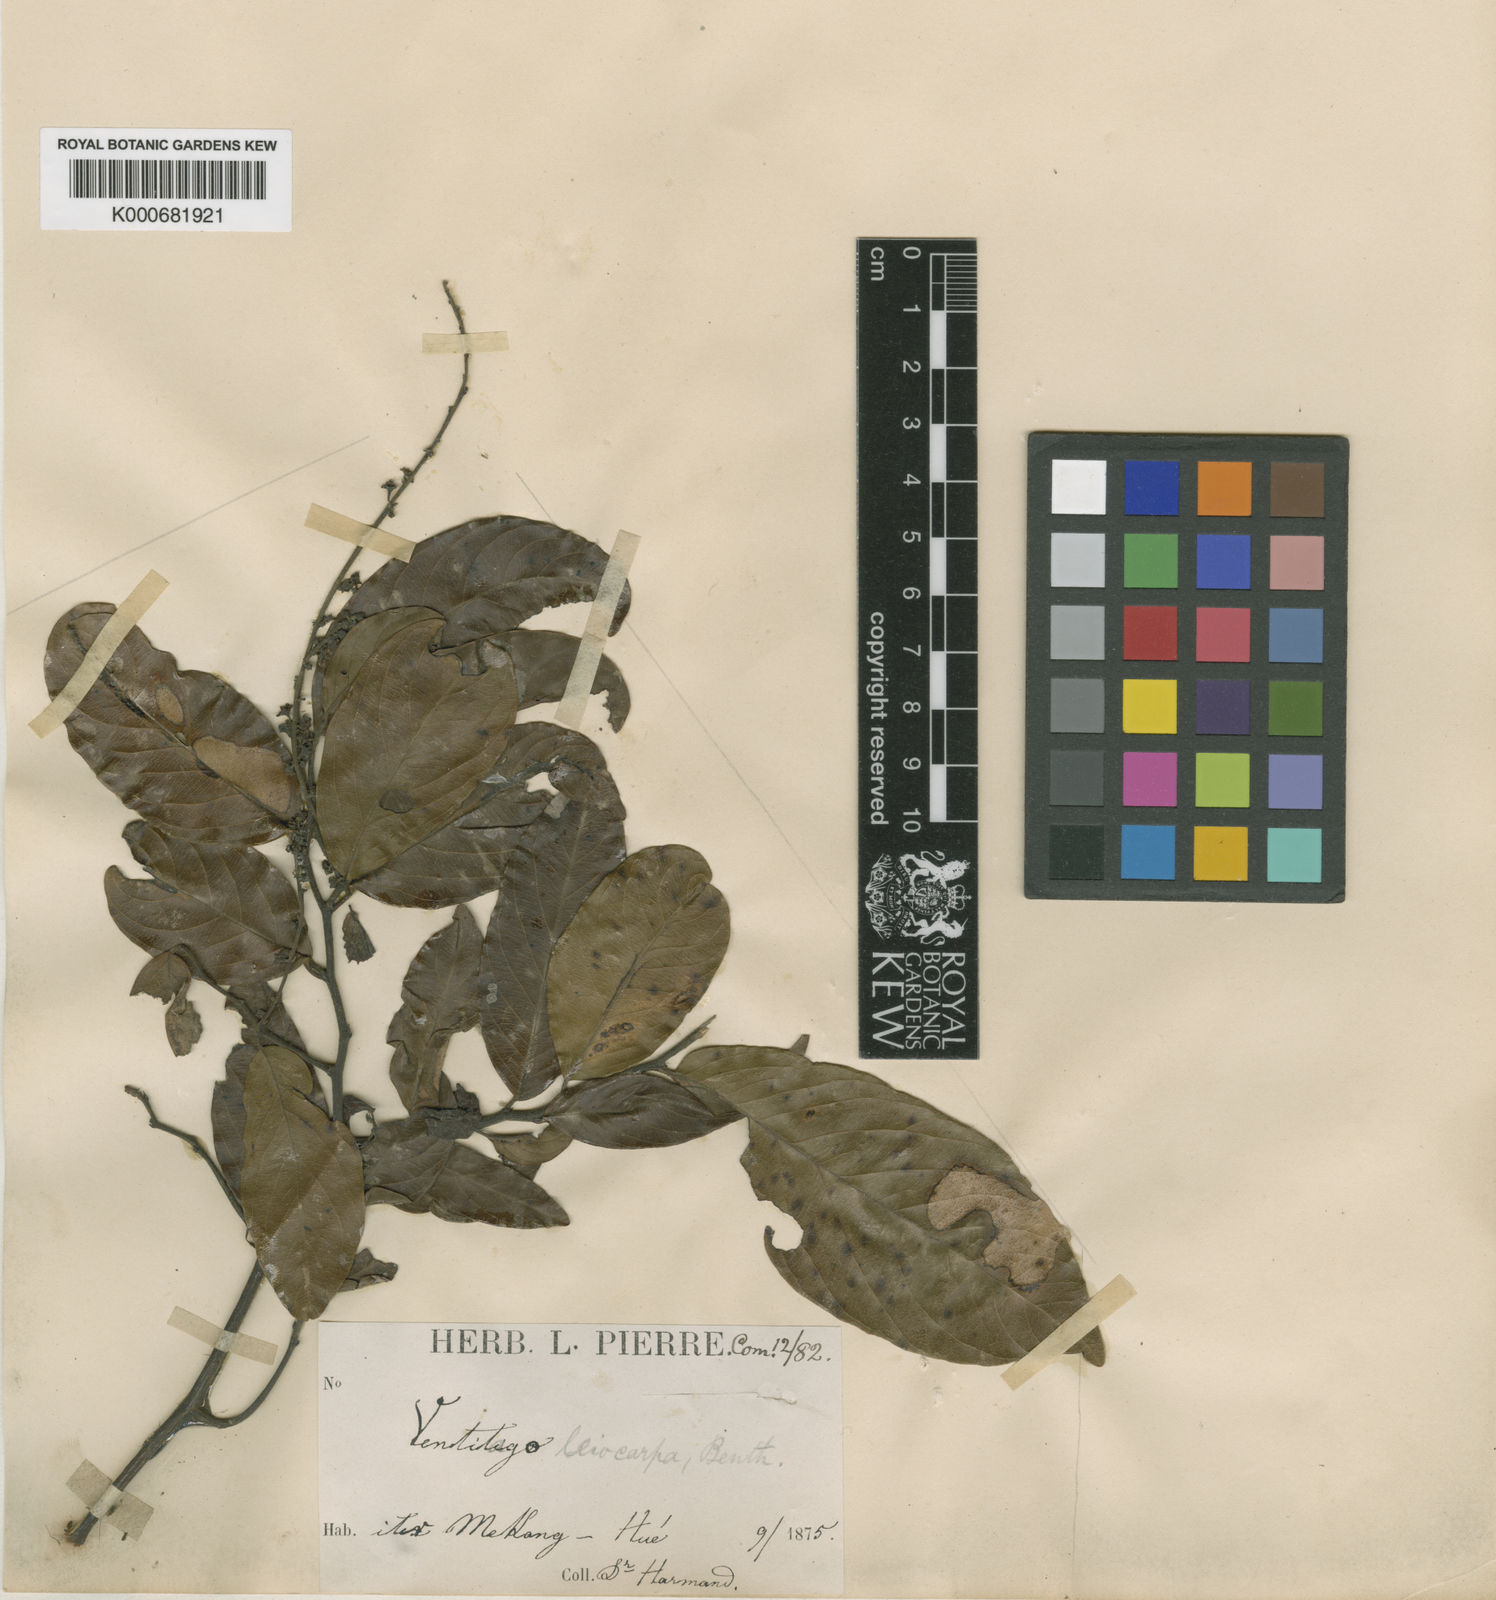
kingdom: Plantae
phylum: Tracheophyta
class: Magnoliopsida
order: Rosales
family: Rhamnaceae
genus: Ventilago
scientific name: Ventilago harmandiana
